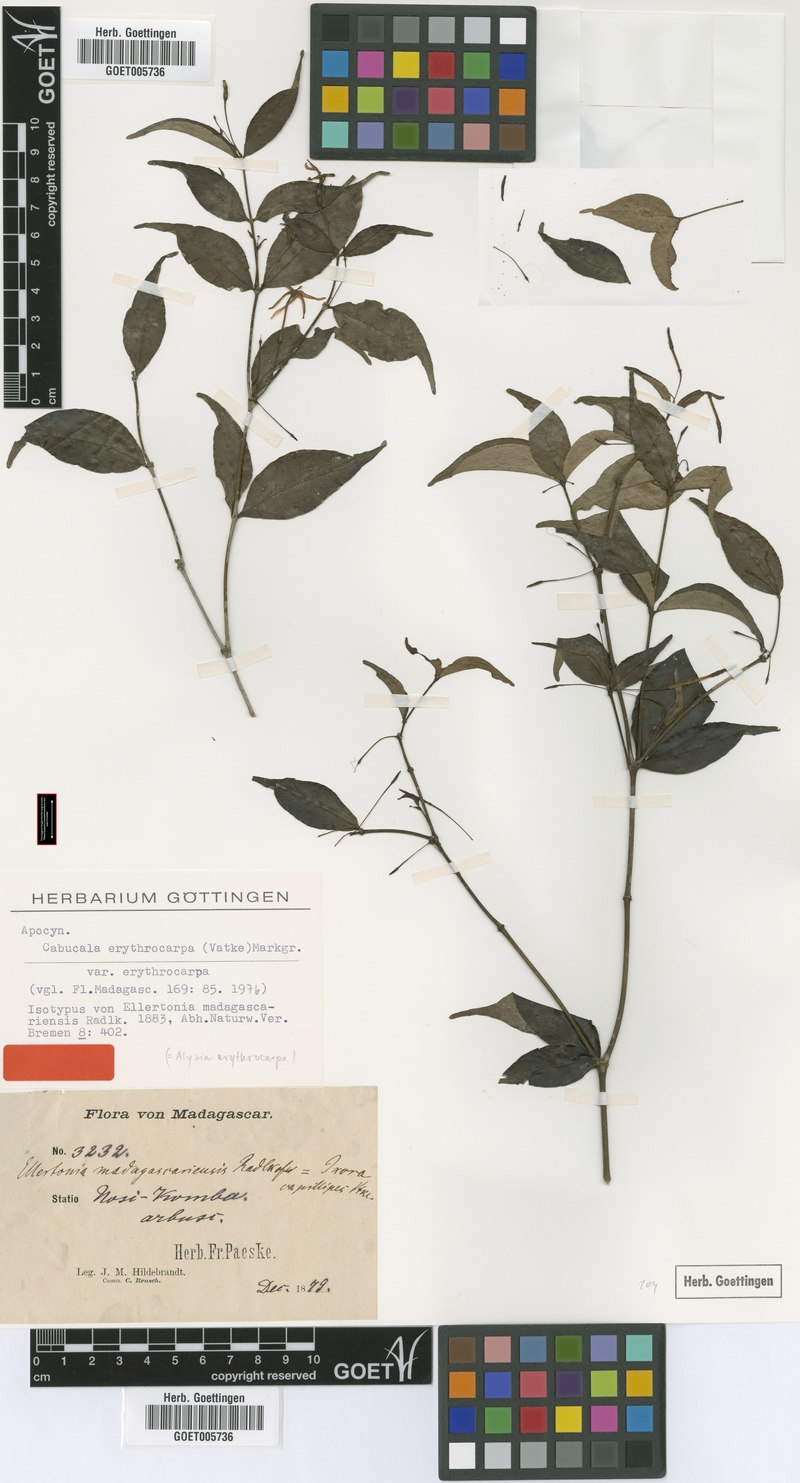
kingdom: Plantae
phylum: Tracheophyta
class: Magnoliopsida
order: Gentianales
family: Apocynaceae
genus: Petchia
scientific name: Petchia erythrocarpa
